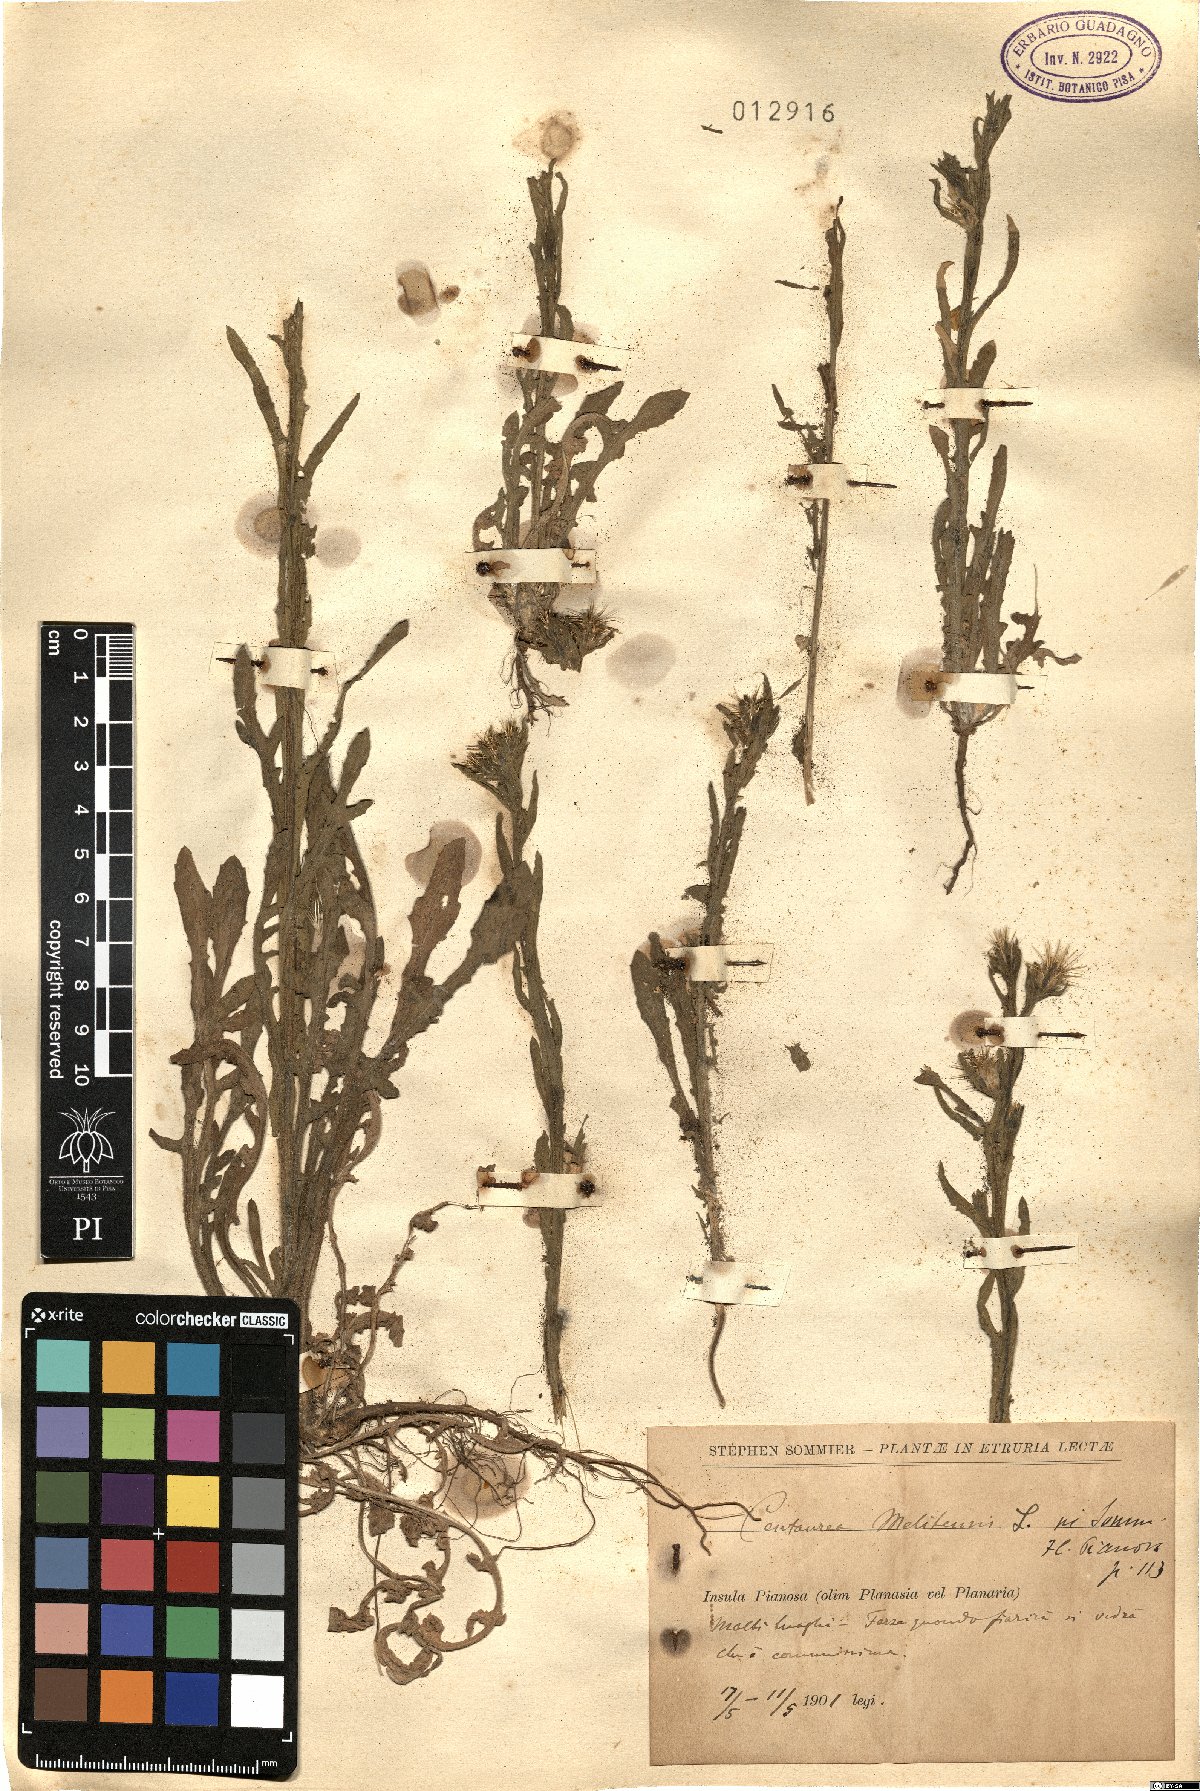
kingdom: Plantae
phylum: Tracheophyta
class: Magnoliopsida
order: Asterales
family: Asteraceae
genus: Centaurea
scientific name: Centaurea melitensis
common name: Maltese star-thistle
